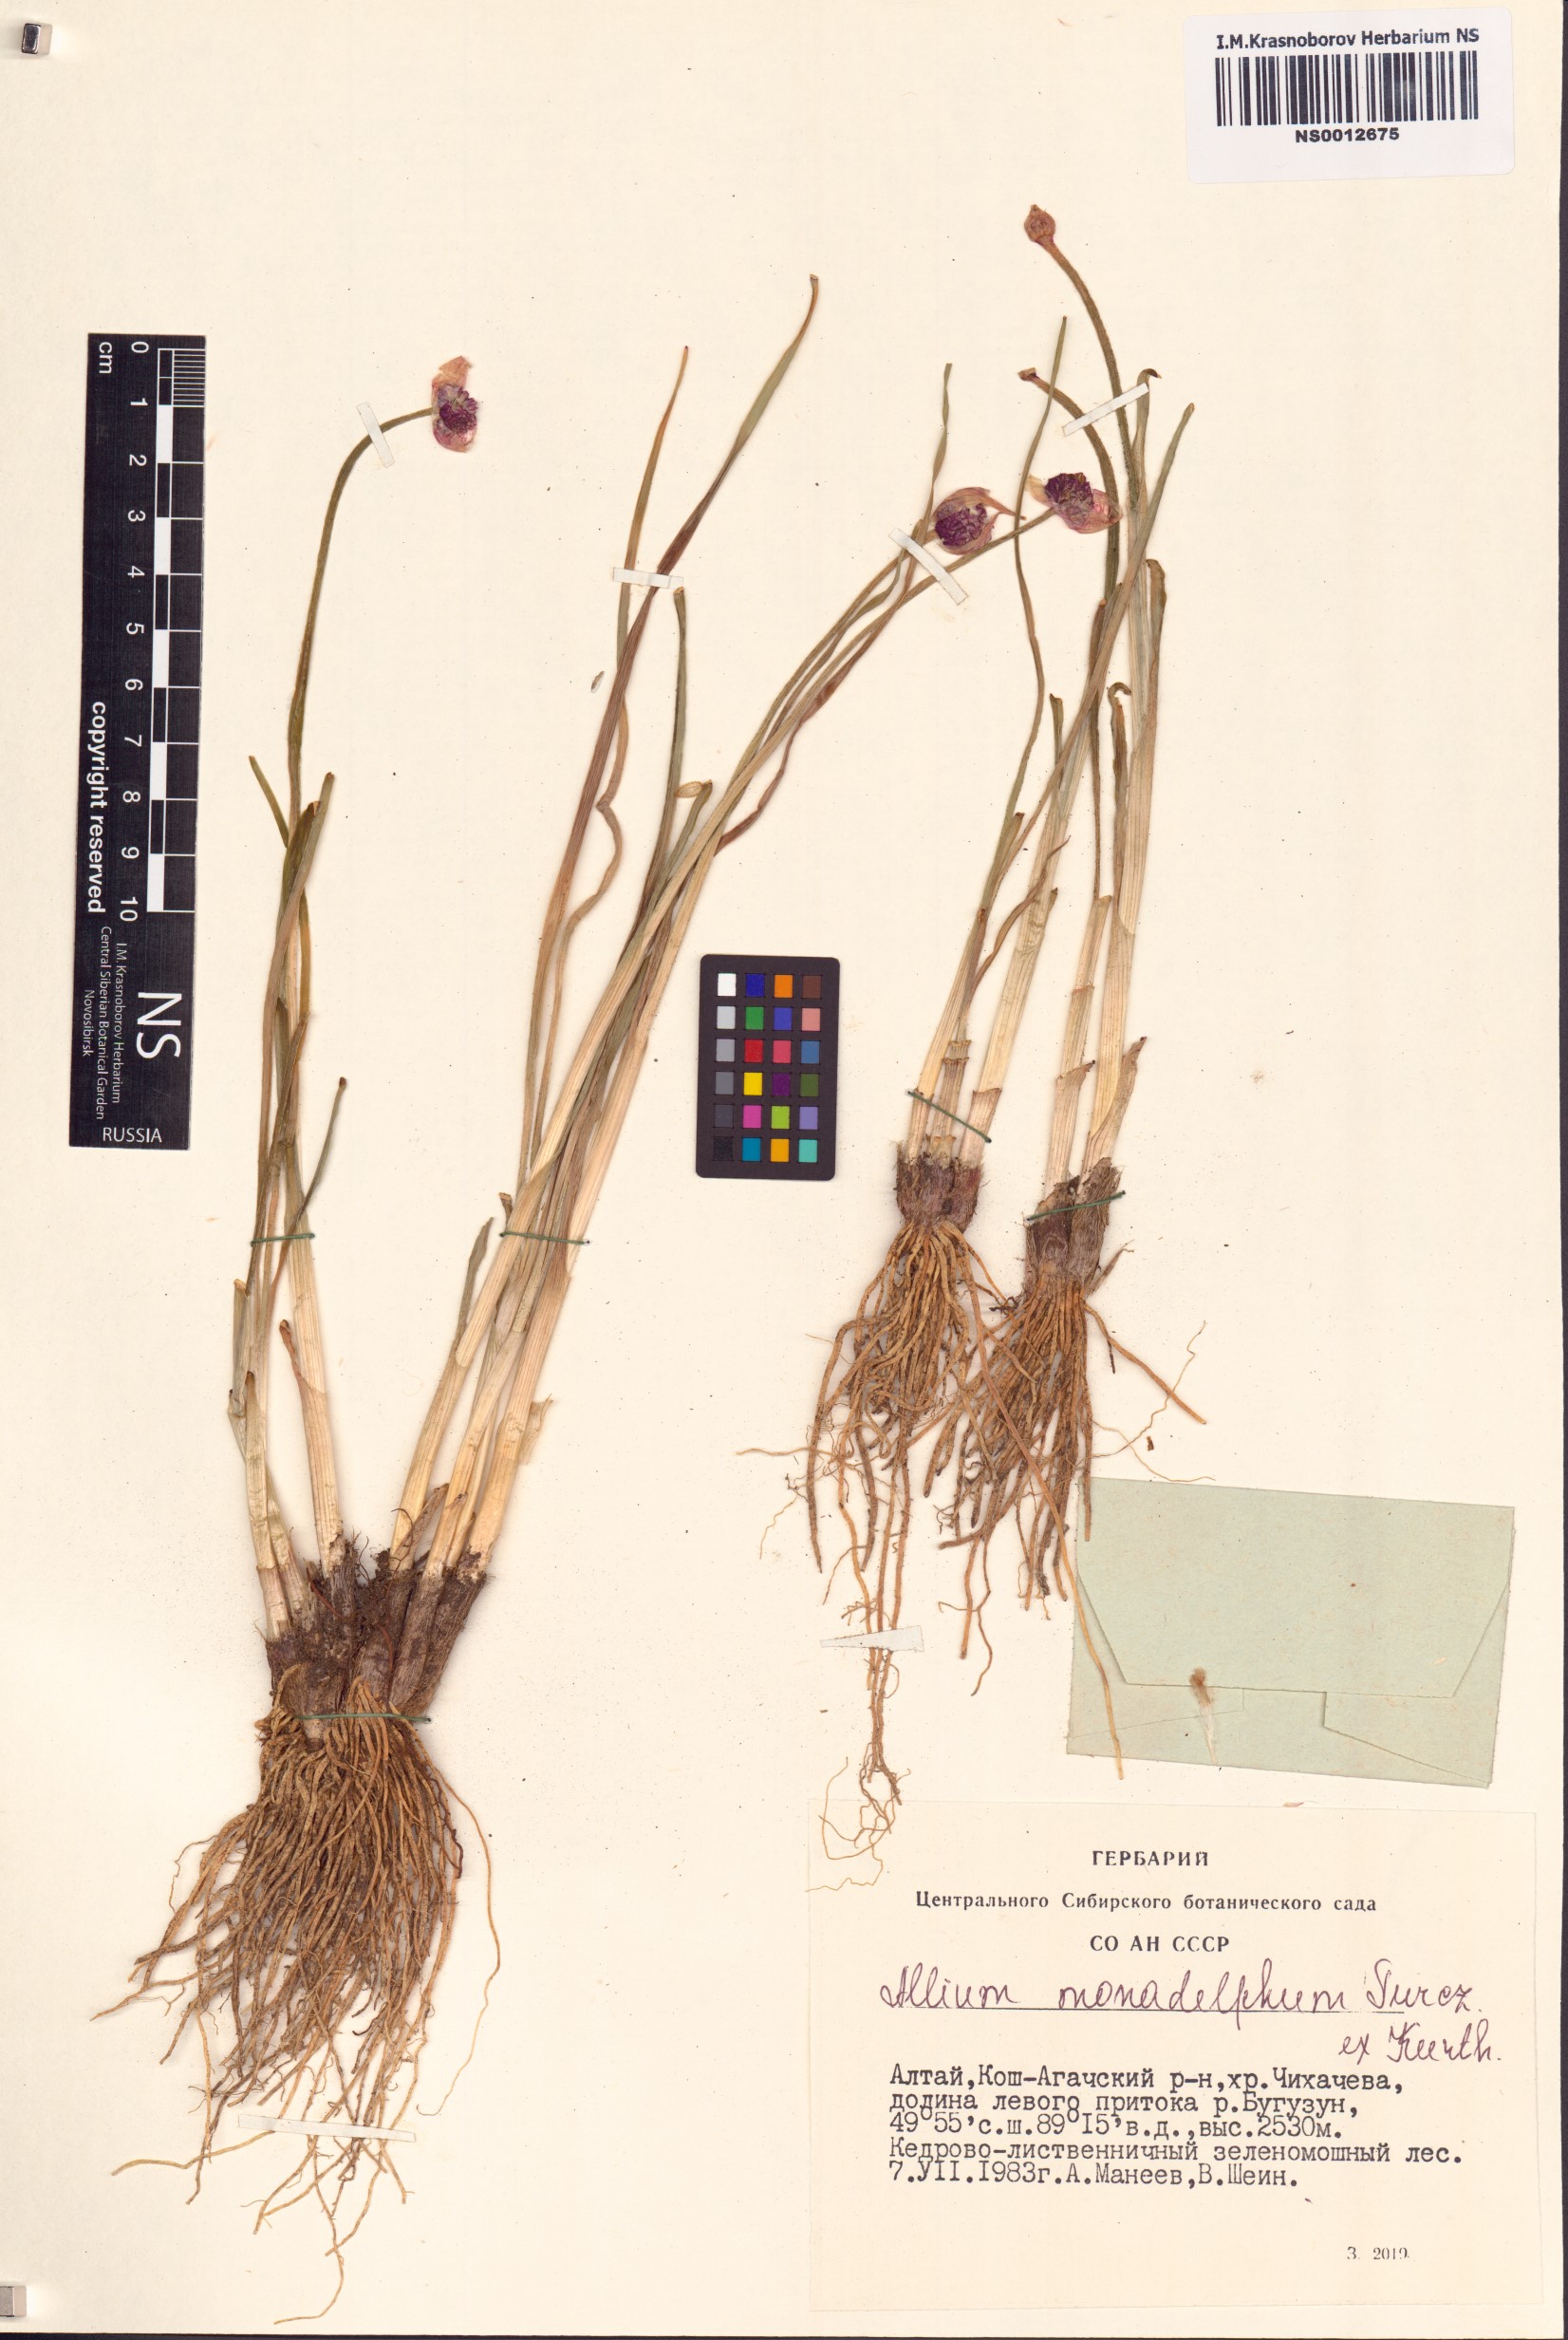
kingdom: Plantae
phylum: Tracheophyta
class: Liliopsida
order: Asparagales
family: Amaryllidaceae
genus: Allium
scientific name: Allium atrosanguineum
